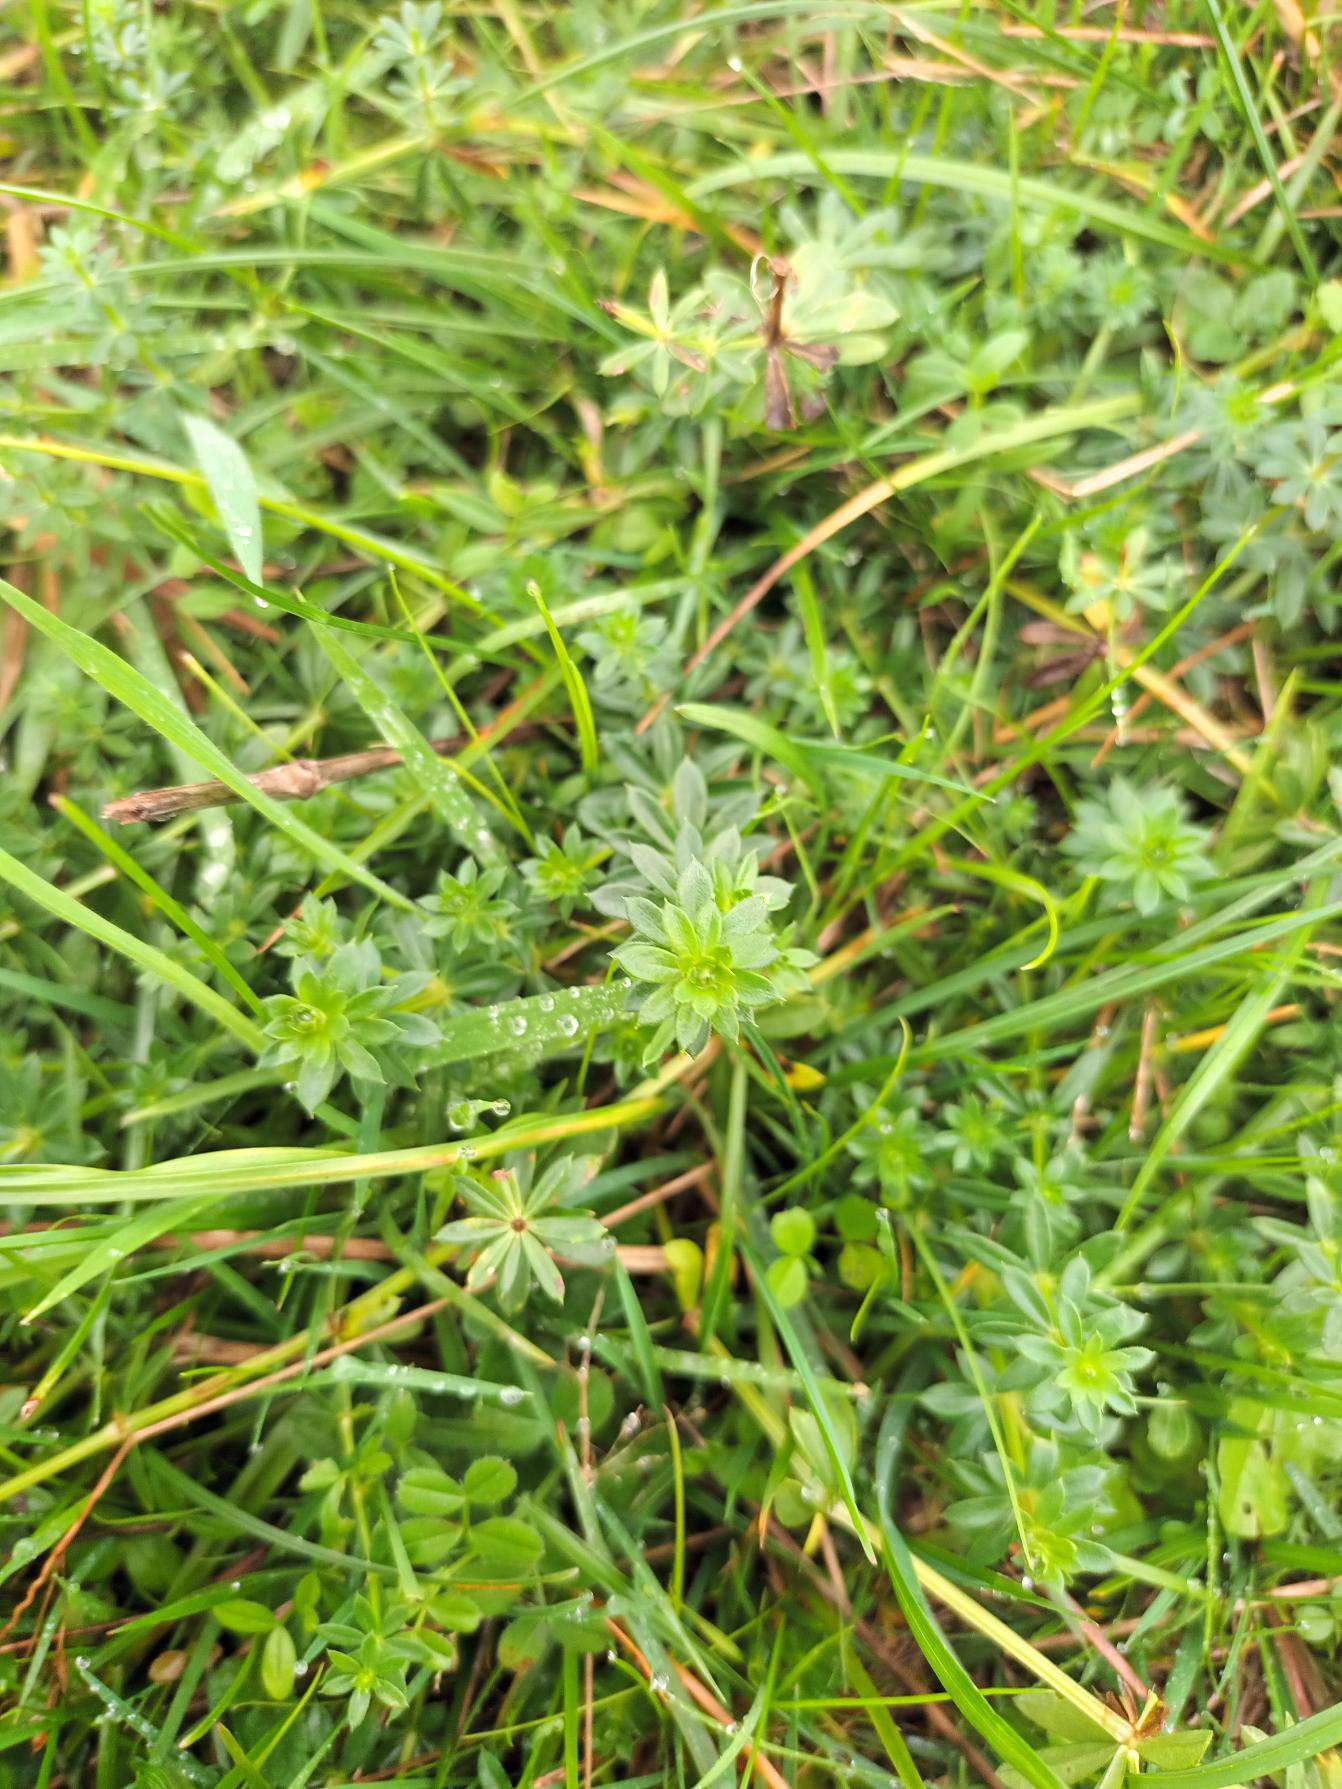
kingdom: Plantae
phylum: Tracheophyta
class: Magnoliopsida
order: Gentianales
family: Rubiaceae
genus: Galium
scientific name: Galium mollugo
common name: Hvid snerre
